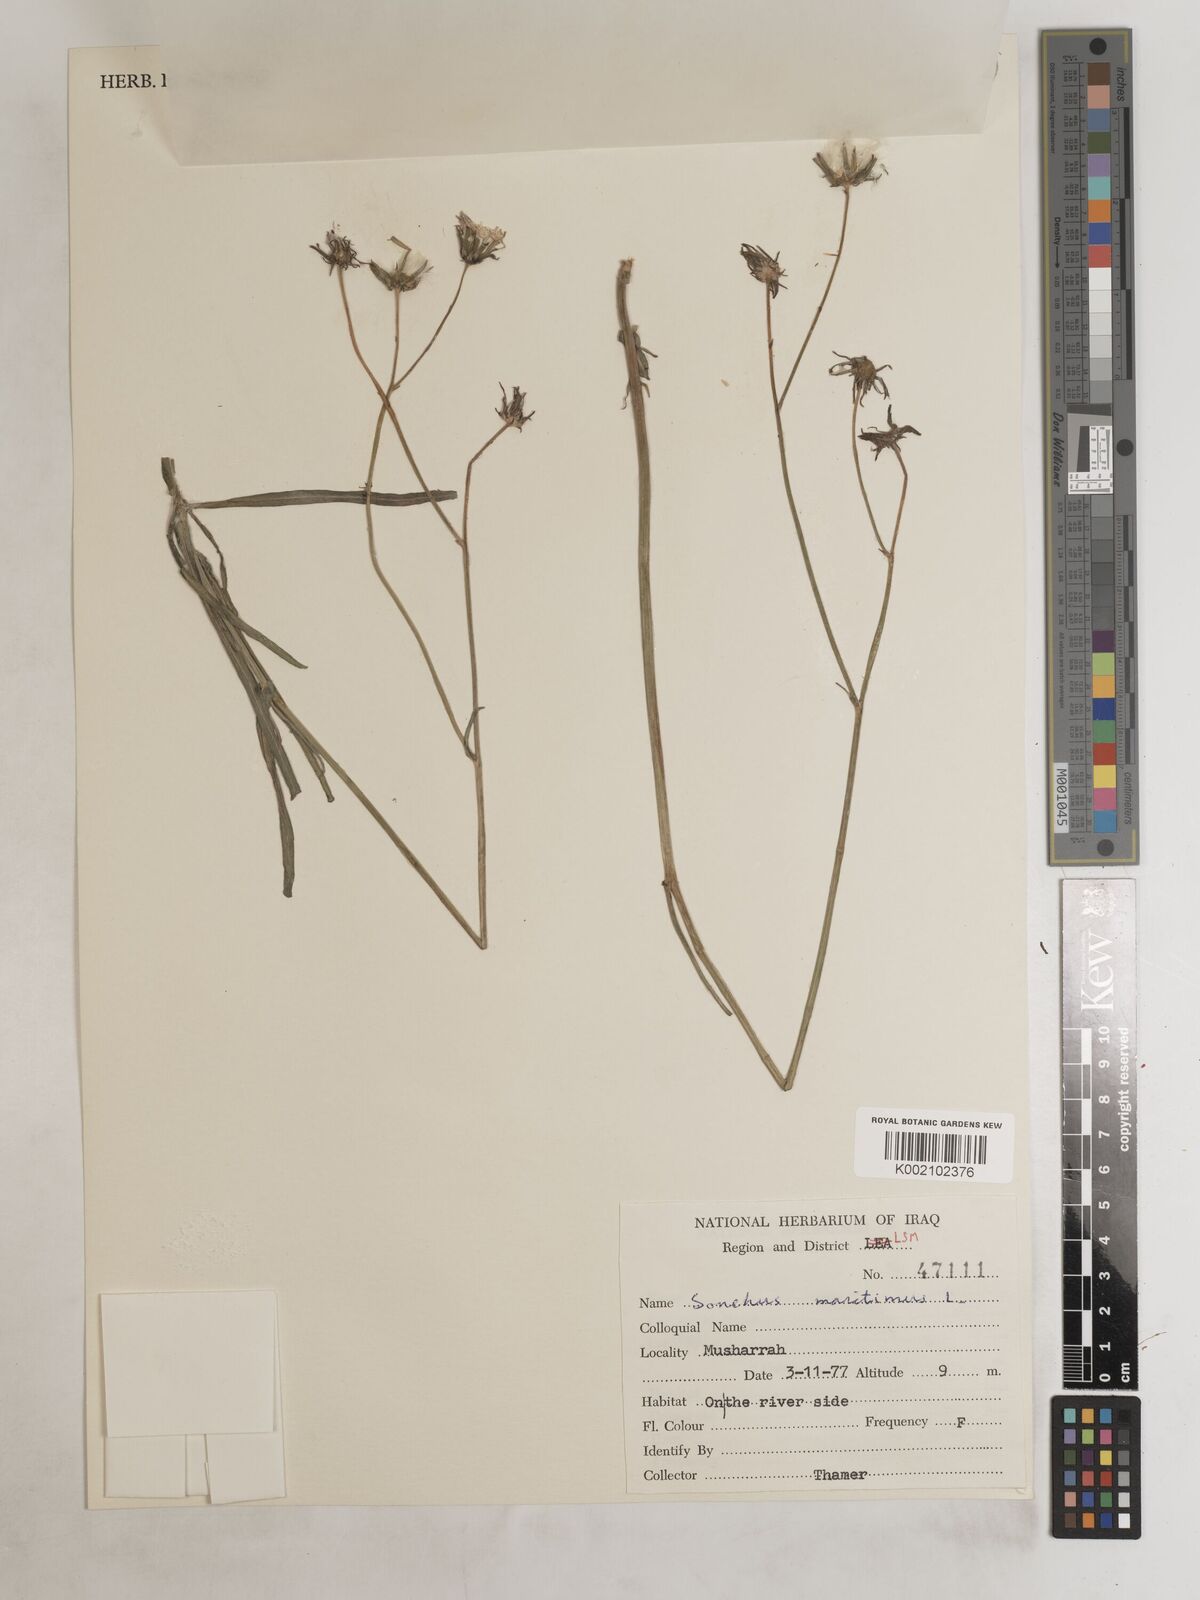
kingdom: Plantae
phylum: Tracheophyta
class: Magnoliopsida
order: Asterales
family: Asteraceae
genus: Sonchus
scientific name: Sonchus maritimus
